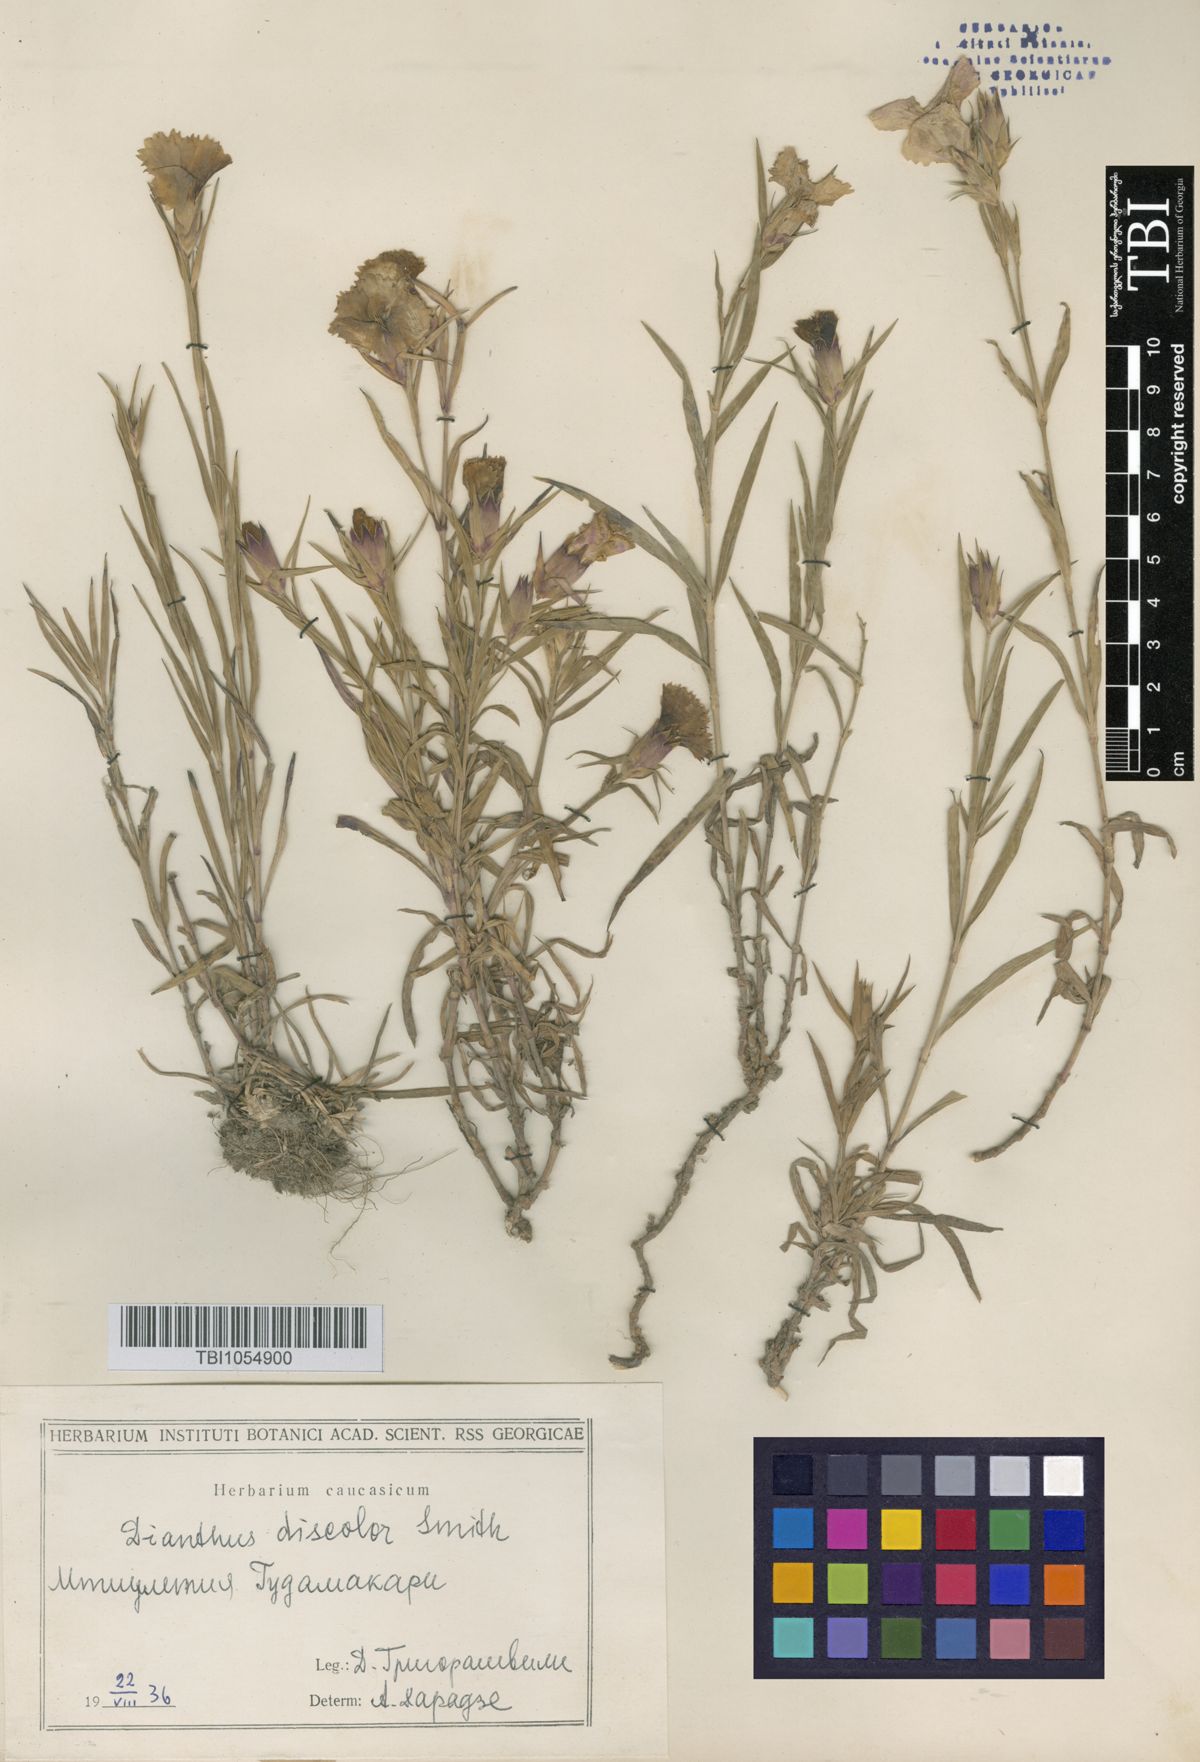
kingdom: Plantae
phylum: Tracheophyta
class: Magnoliopsida
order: Caryophyllales
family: Caryophyllaceae
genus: Dianthus
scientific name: Dianthus caucaseus
